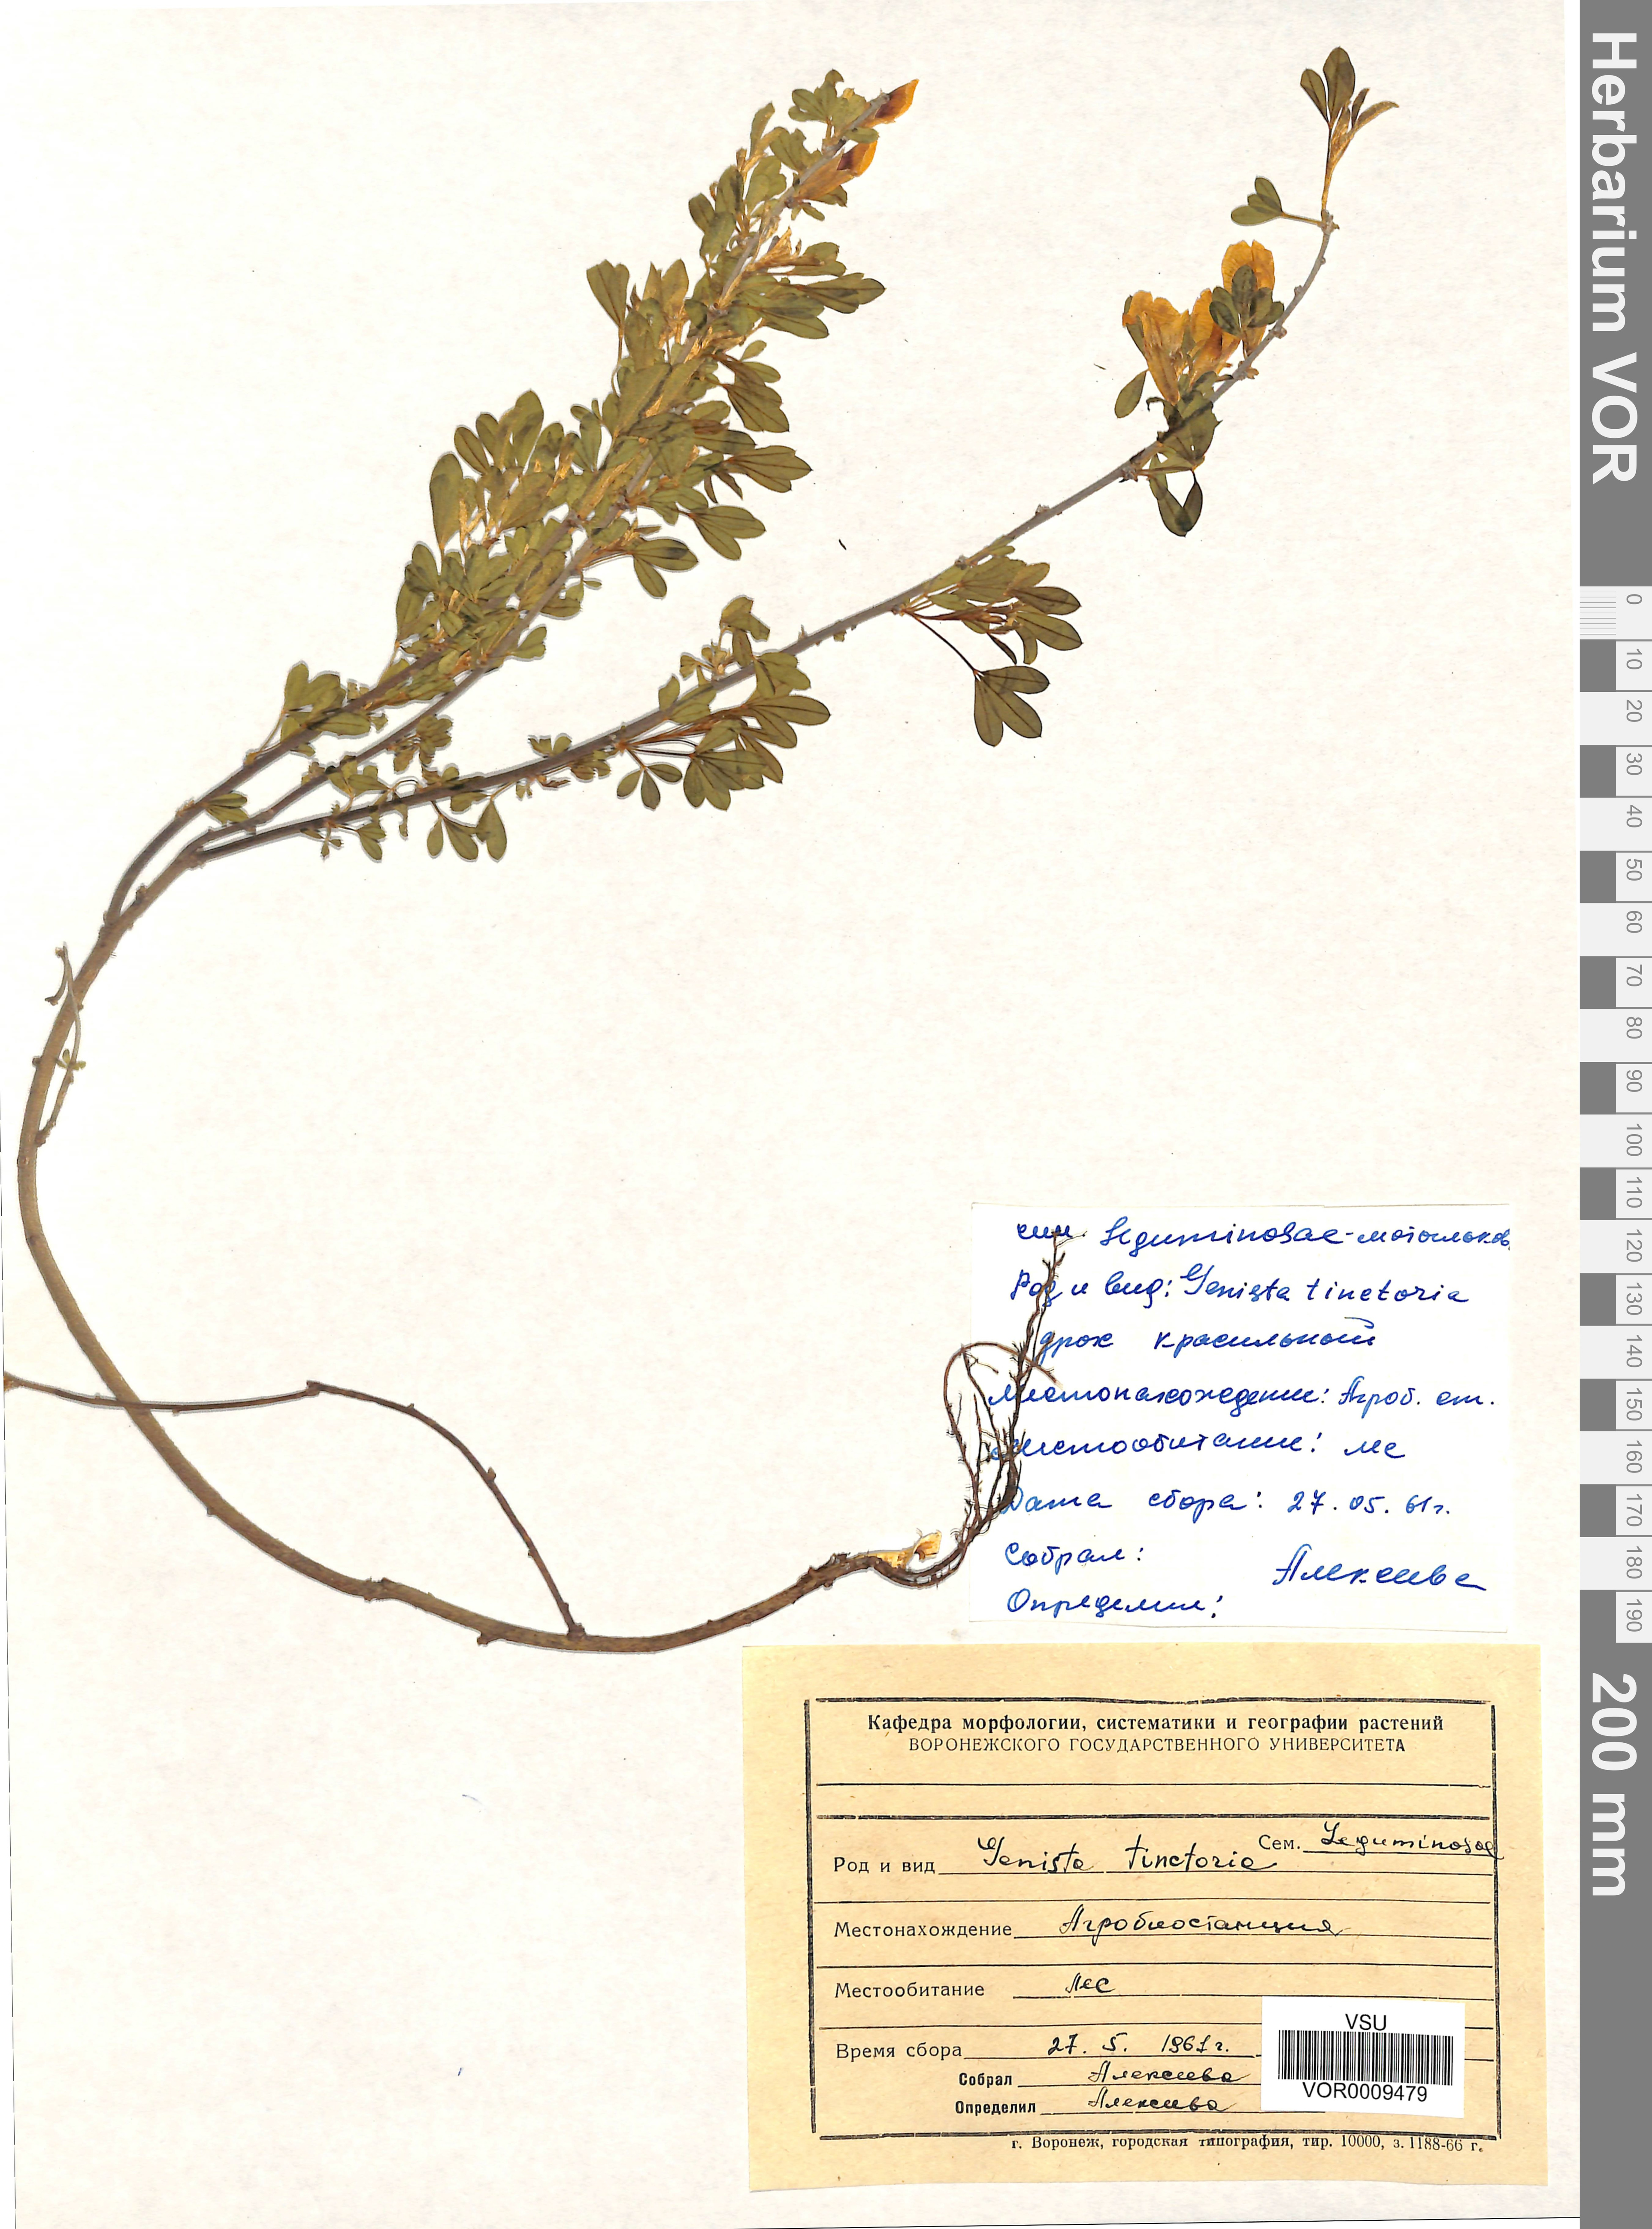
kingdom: Plantae
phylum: Tracheophyta
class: Magnoliopsida
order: Fabales
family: Fabaceae
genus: Genista
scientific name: Genista tinctoria
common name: Dyer's greenweed
